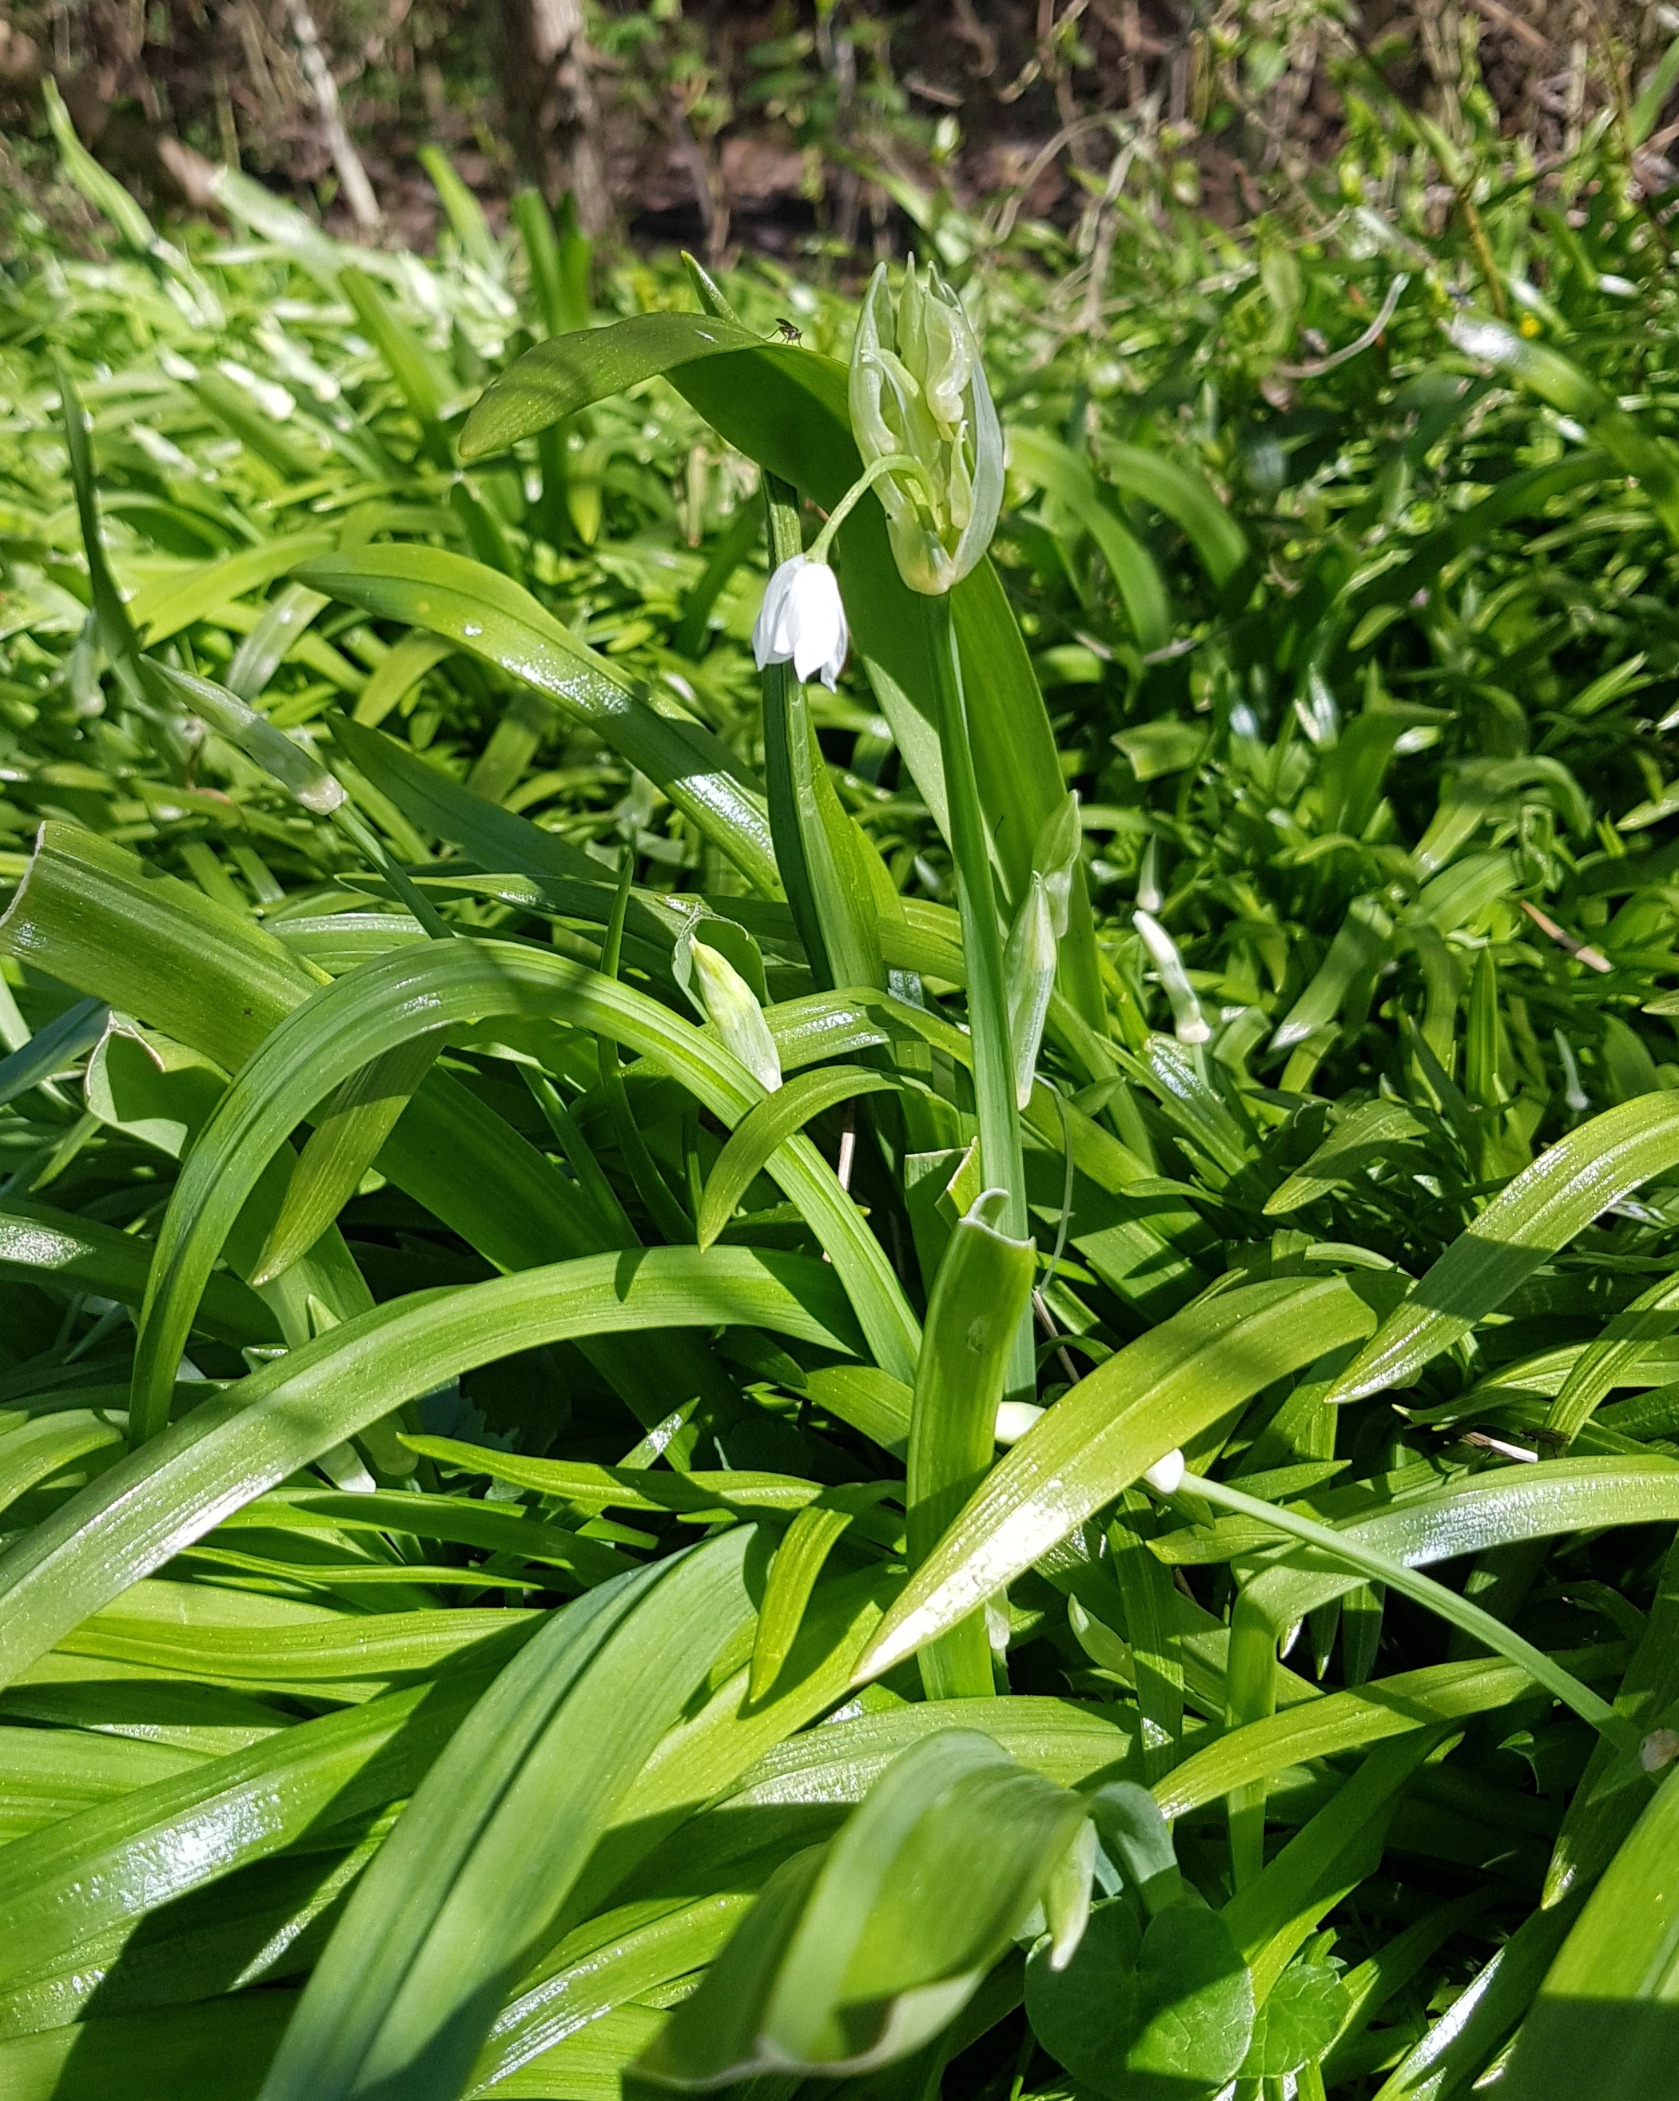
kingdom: Plantae
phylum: Tracheophyta
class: Liliopsida
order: Asparagales
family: Amaryllidaceae
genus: Allium
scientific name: Allium paradoxum
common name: Spøjs løg
